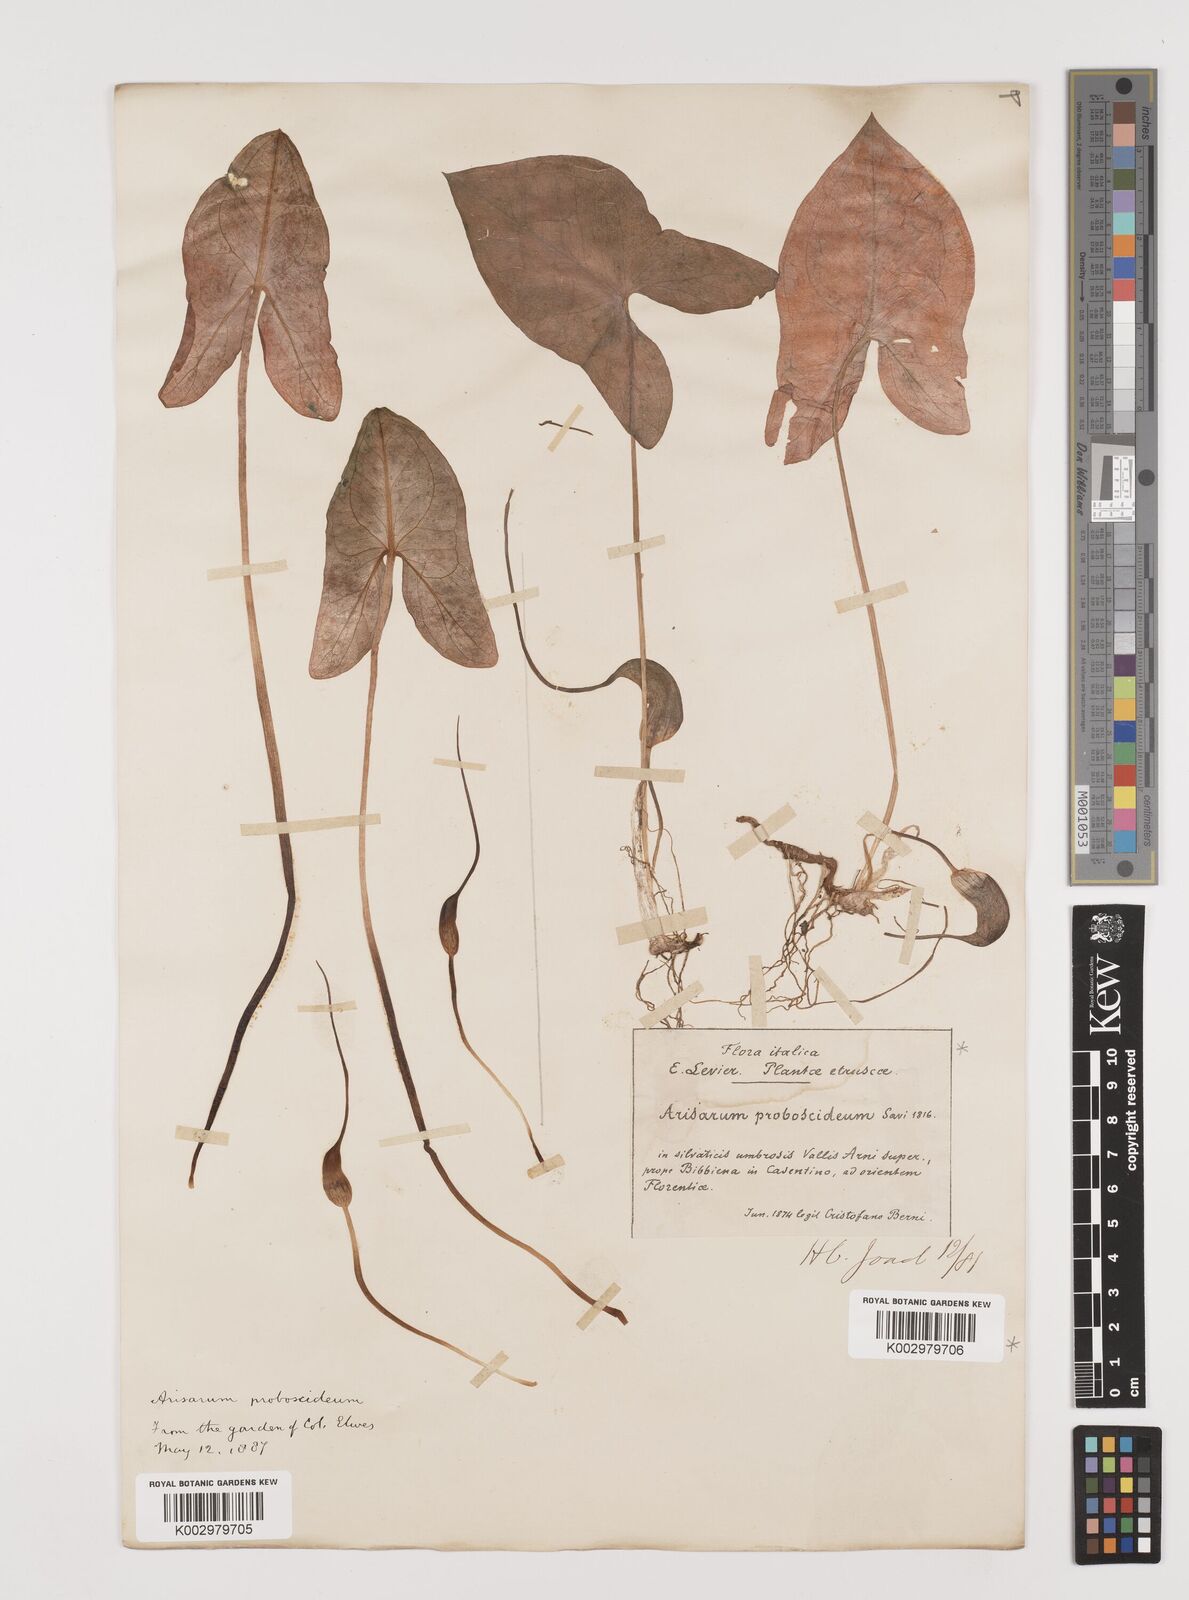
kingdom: Plantae
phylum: Tracheophyta
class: Liliopsida
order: Alismatales
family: Araceae
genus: Arisarum
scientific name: Arisarum proboscideum
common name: Mousetailplant
